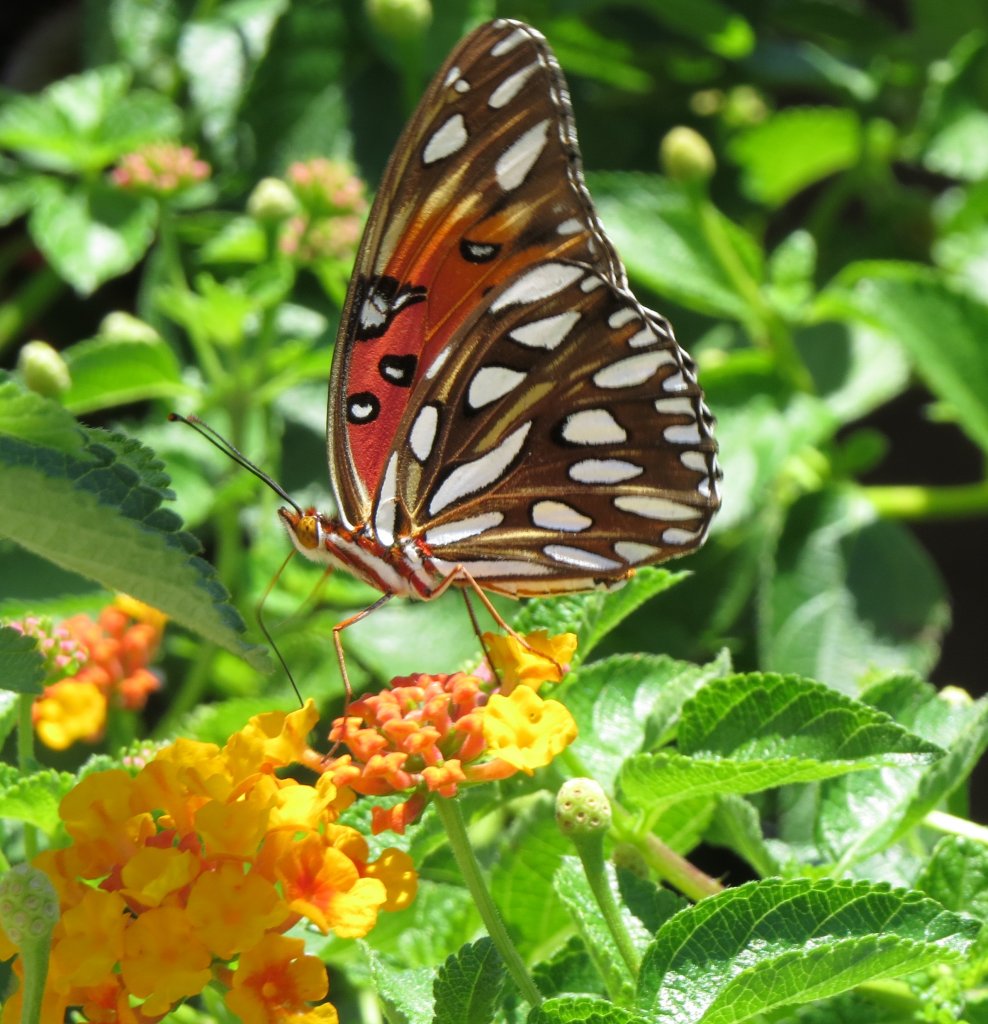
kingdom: Animalia
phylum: Arthropoda
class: Insecta
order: Lepidoptera
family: Nymphalidae
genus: Dione
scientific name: Dione vanillae
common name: Gulf Fritillary
